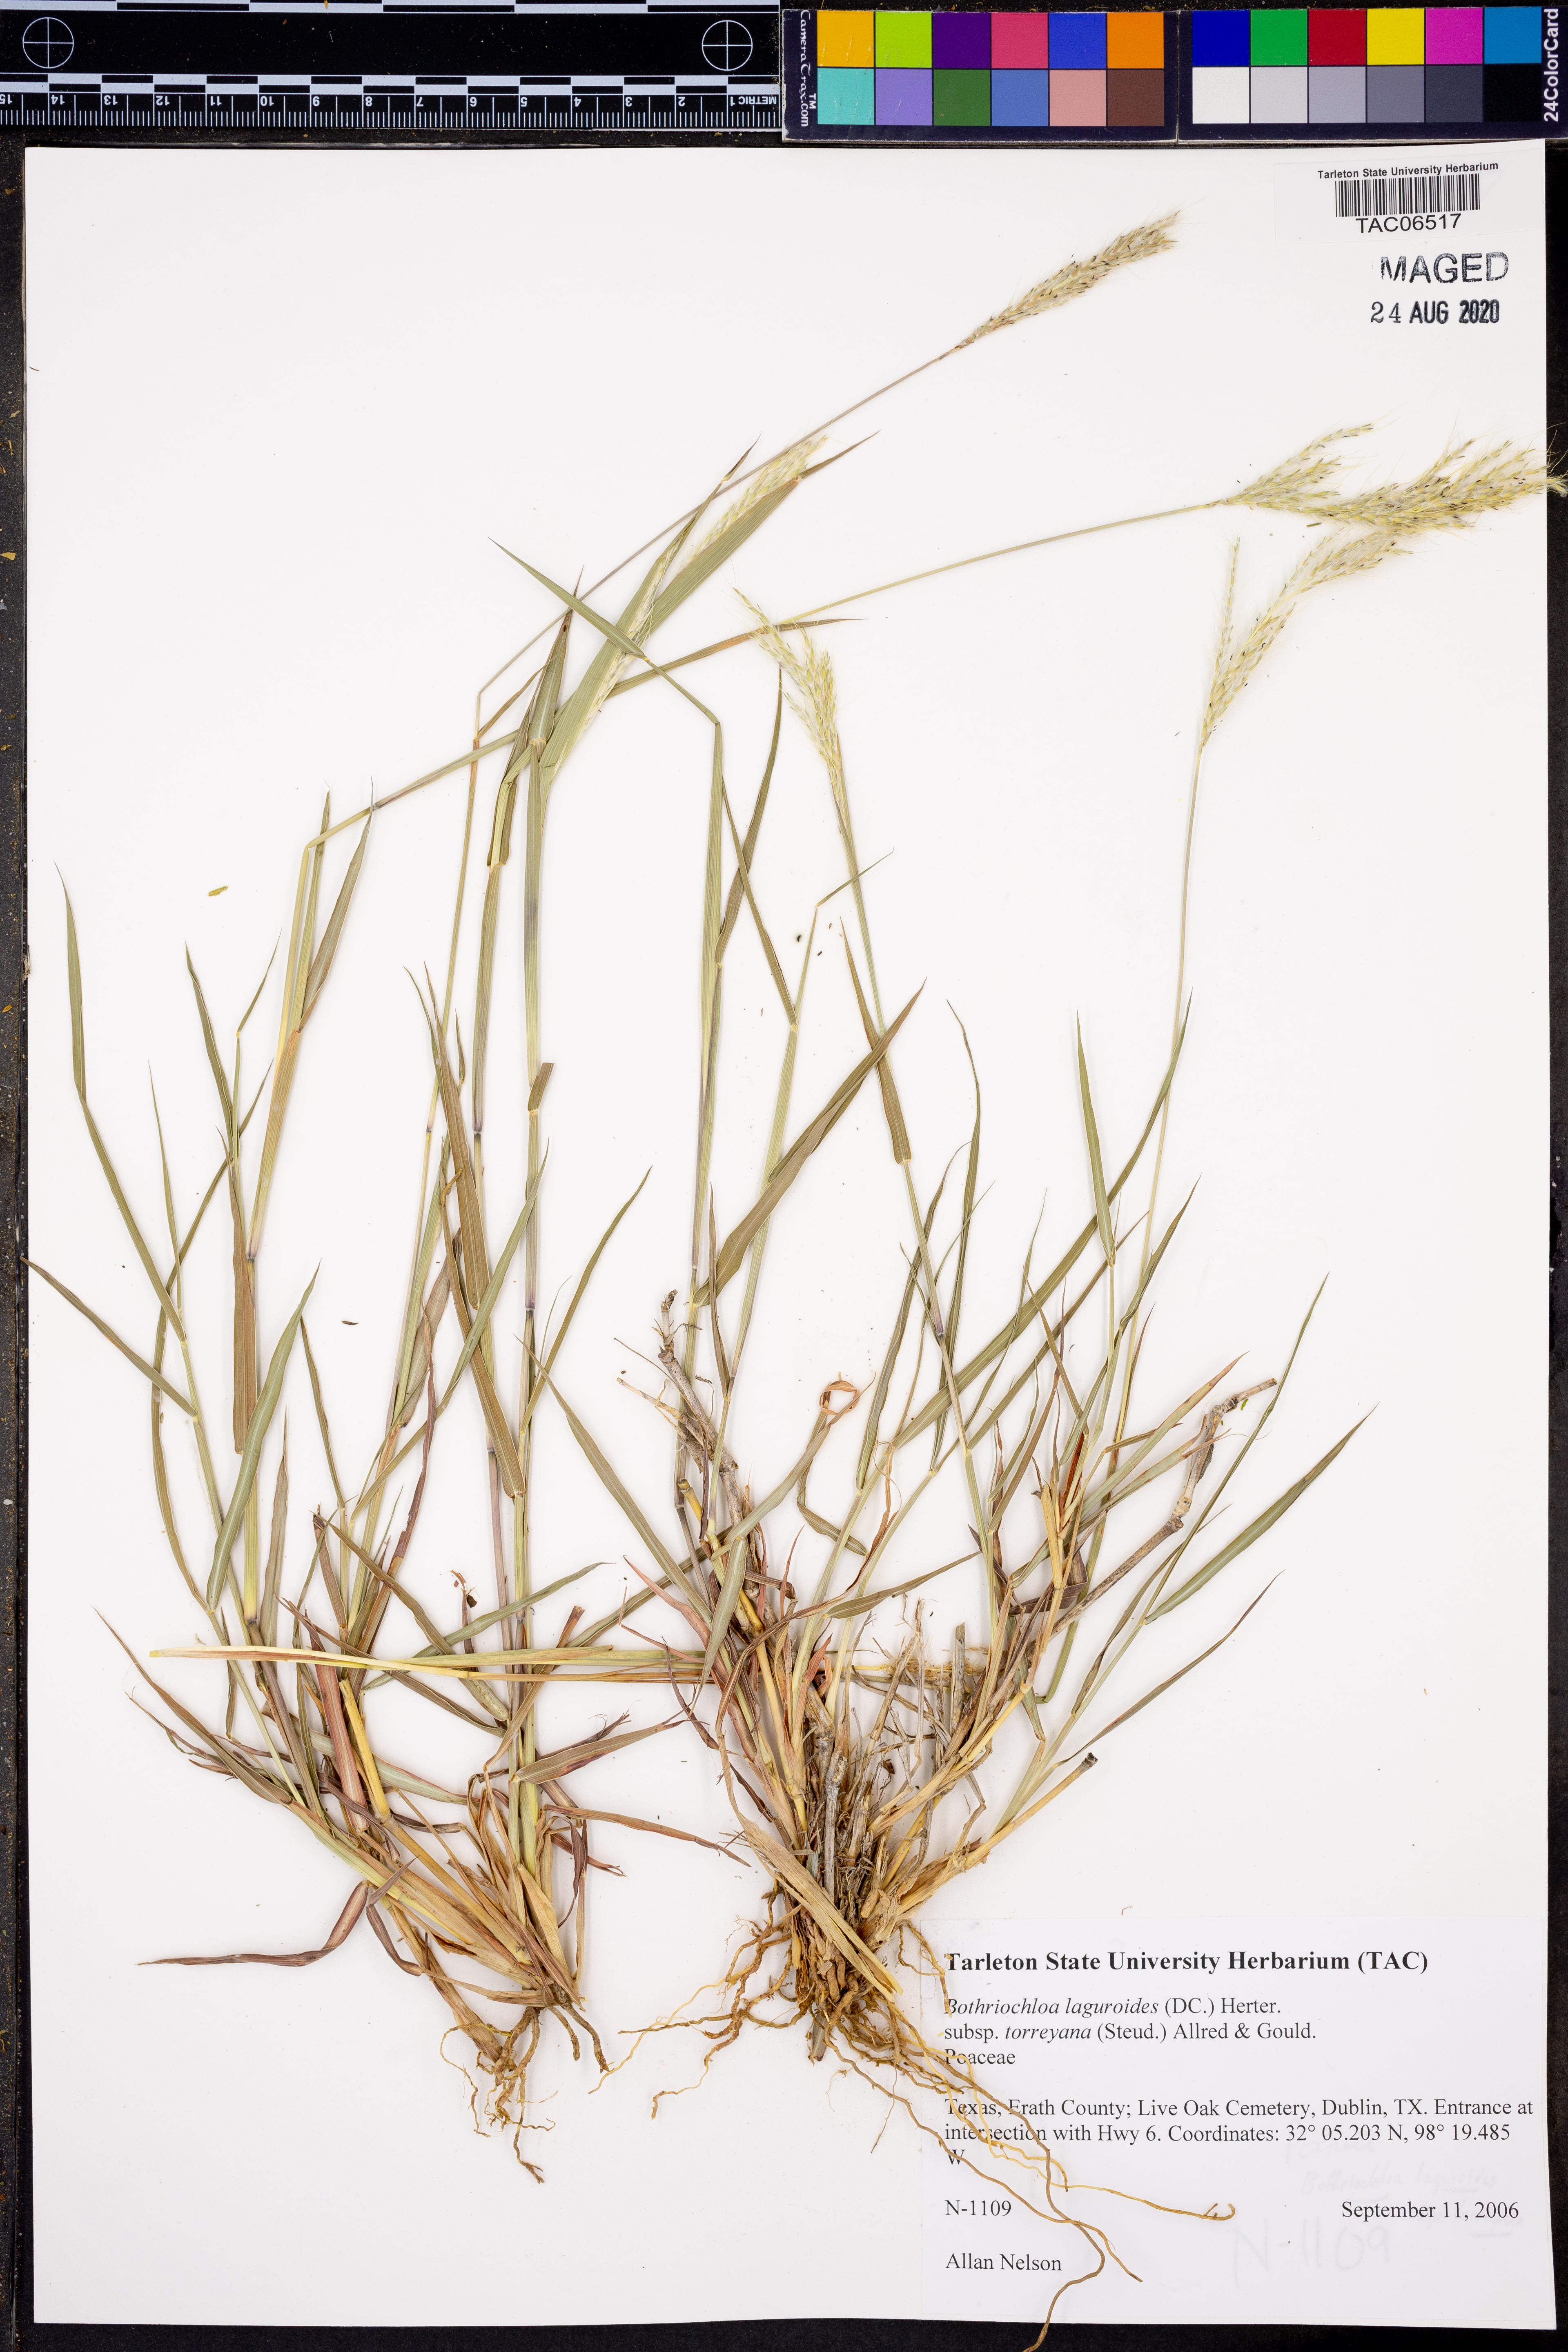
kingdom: Plantae
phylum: Tracheophyta
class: Liliopsida
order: Poales
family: Poaceae
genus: Bothriochloa
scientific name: Bothriochloa torreyana
